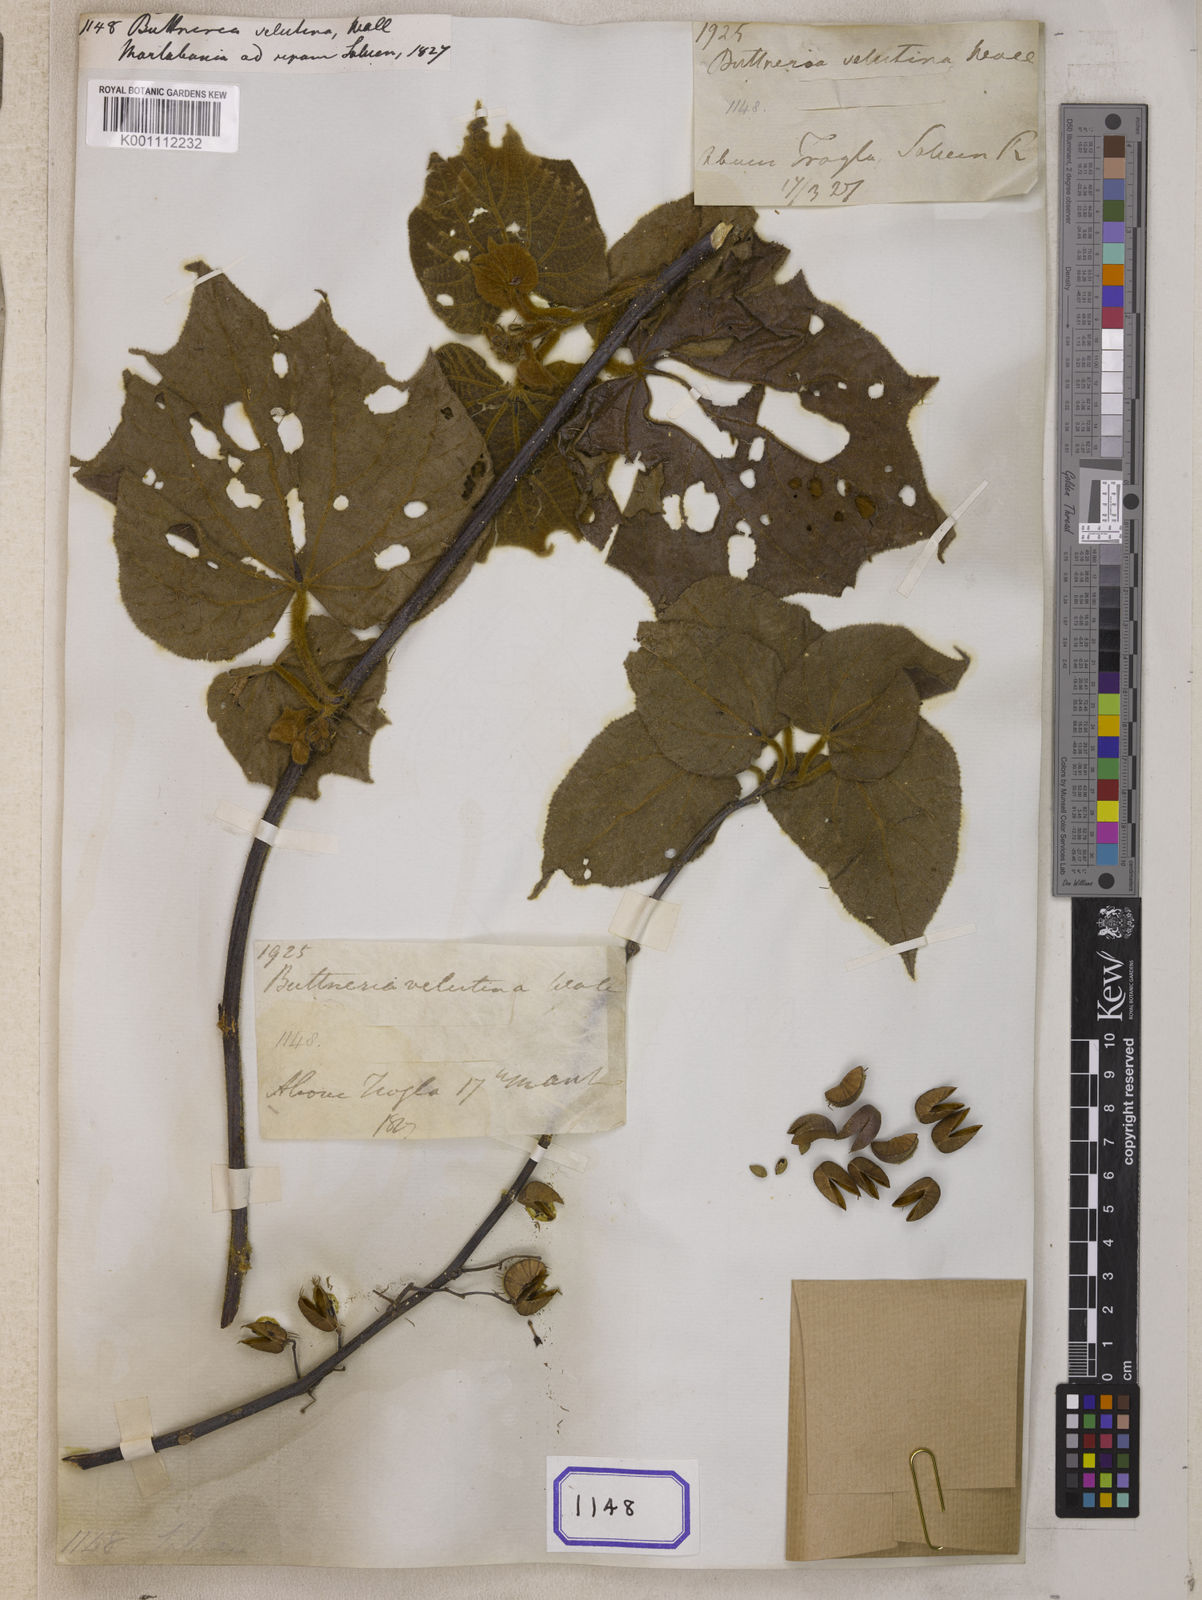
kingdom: Plantae
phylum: Tracheophyta
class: Magnoliopsida
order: Malvales
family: Malvaceae
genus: Byttneria
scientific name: Byttneria
